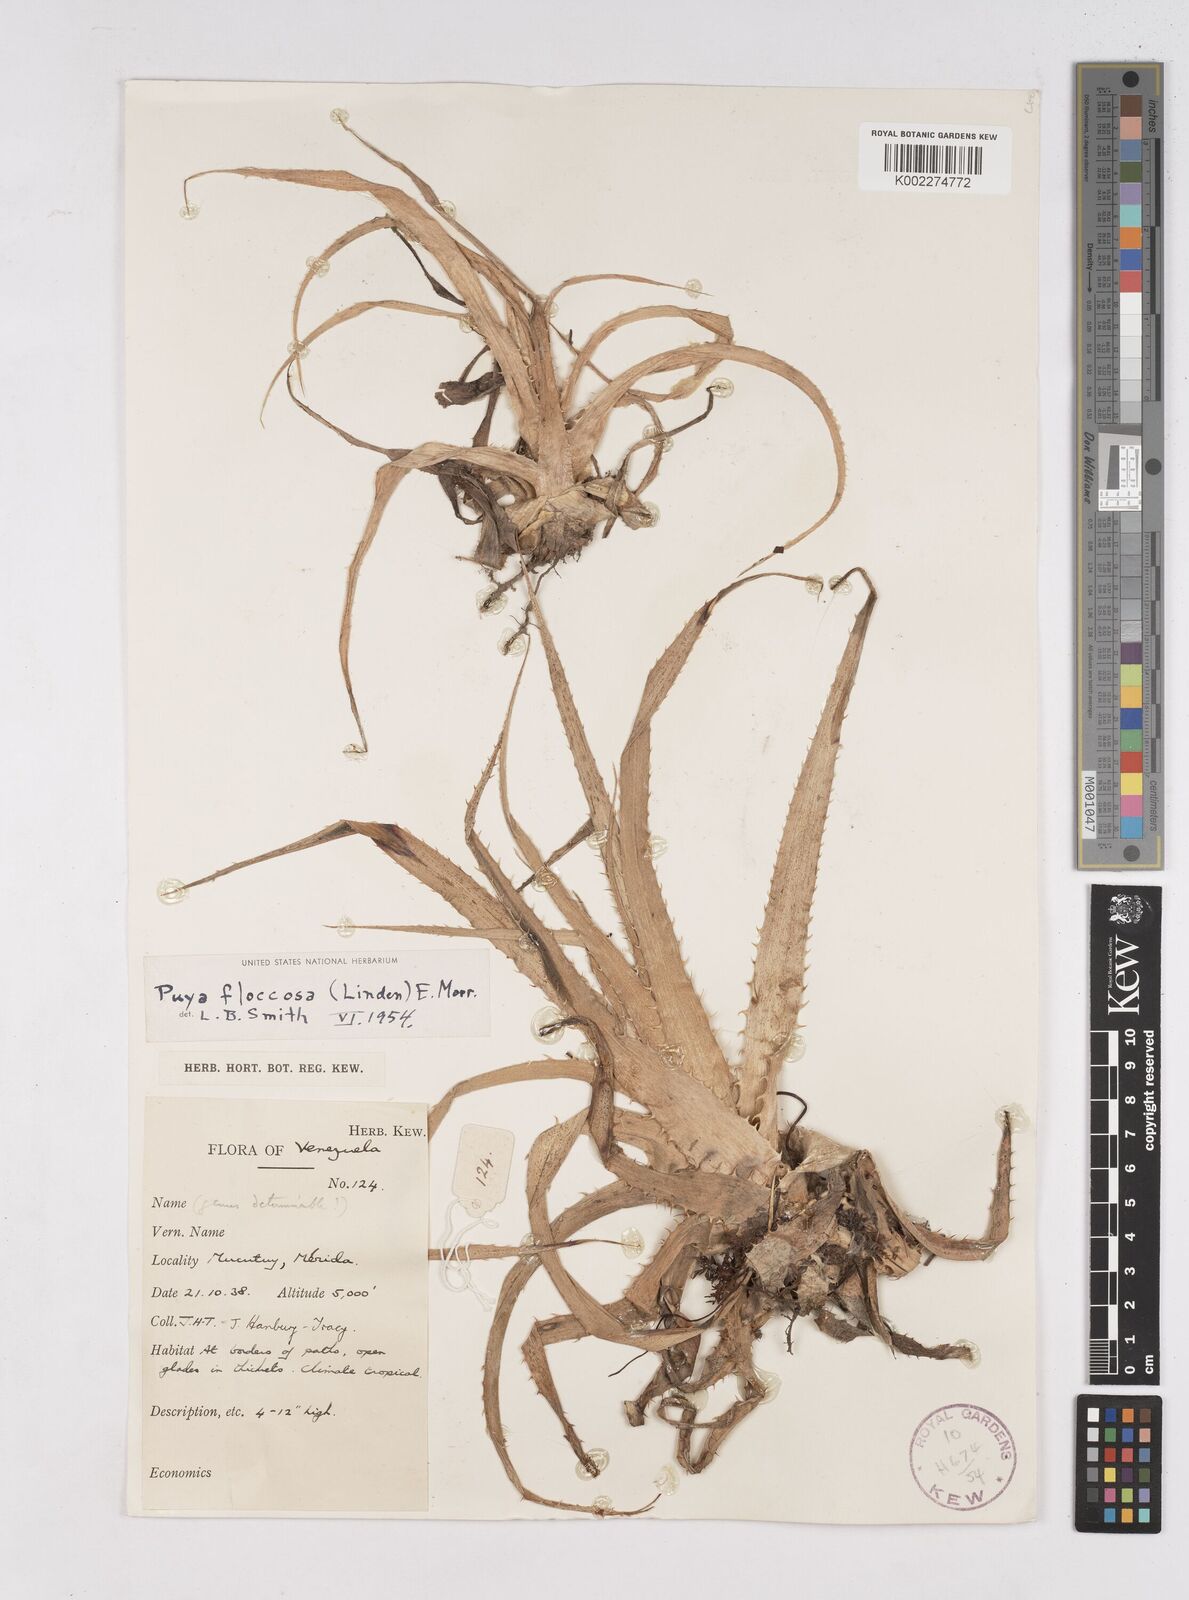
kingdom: Plantae
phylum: Tracheophyta
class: Liliopsida
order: Poales
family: Bromeliaceae
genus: Puya
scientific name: Puya floccosa
